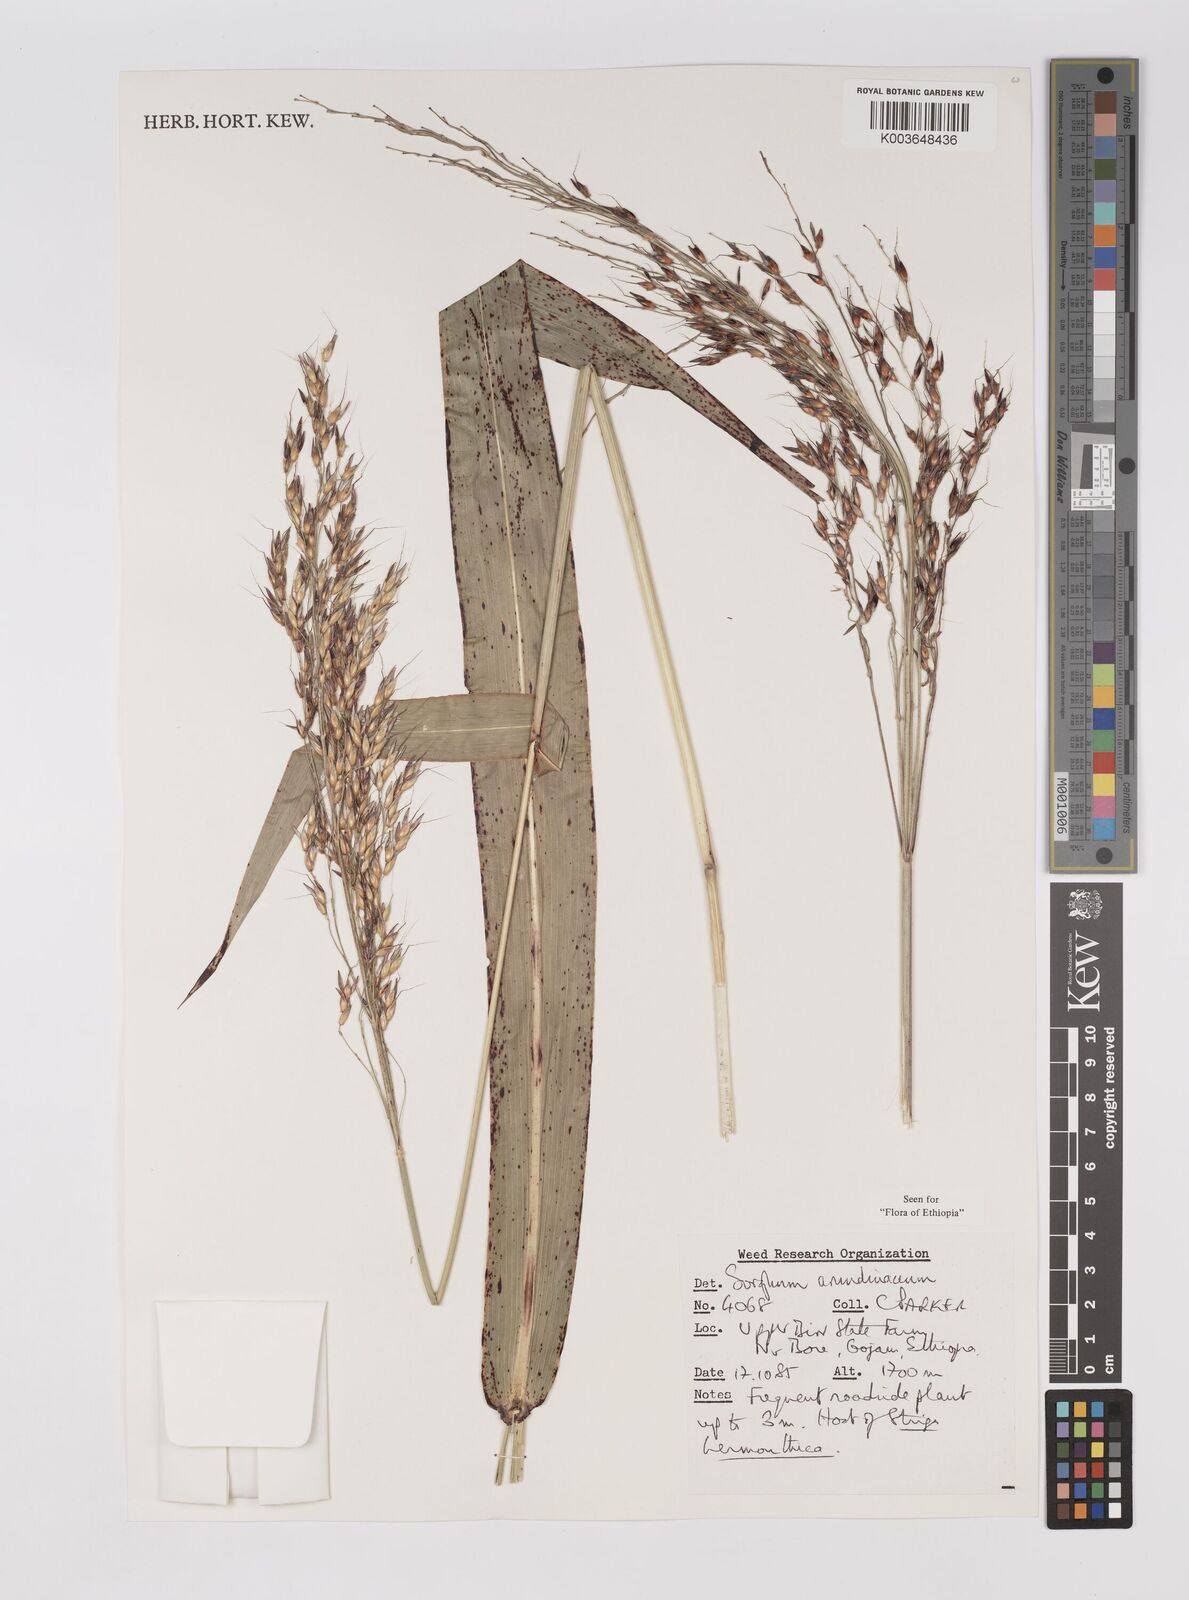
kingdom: Plantae
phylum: Tracheophyta
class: Liliopsida
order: Poales
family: Poaceae
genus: Sorghum
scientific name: Sorghum arundinaceum
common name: Sorghum
